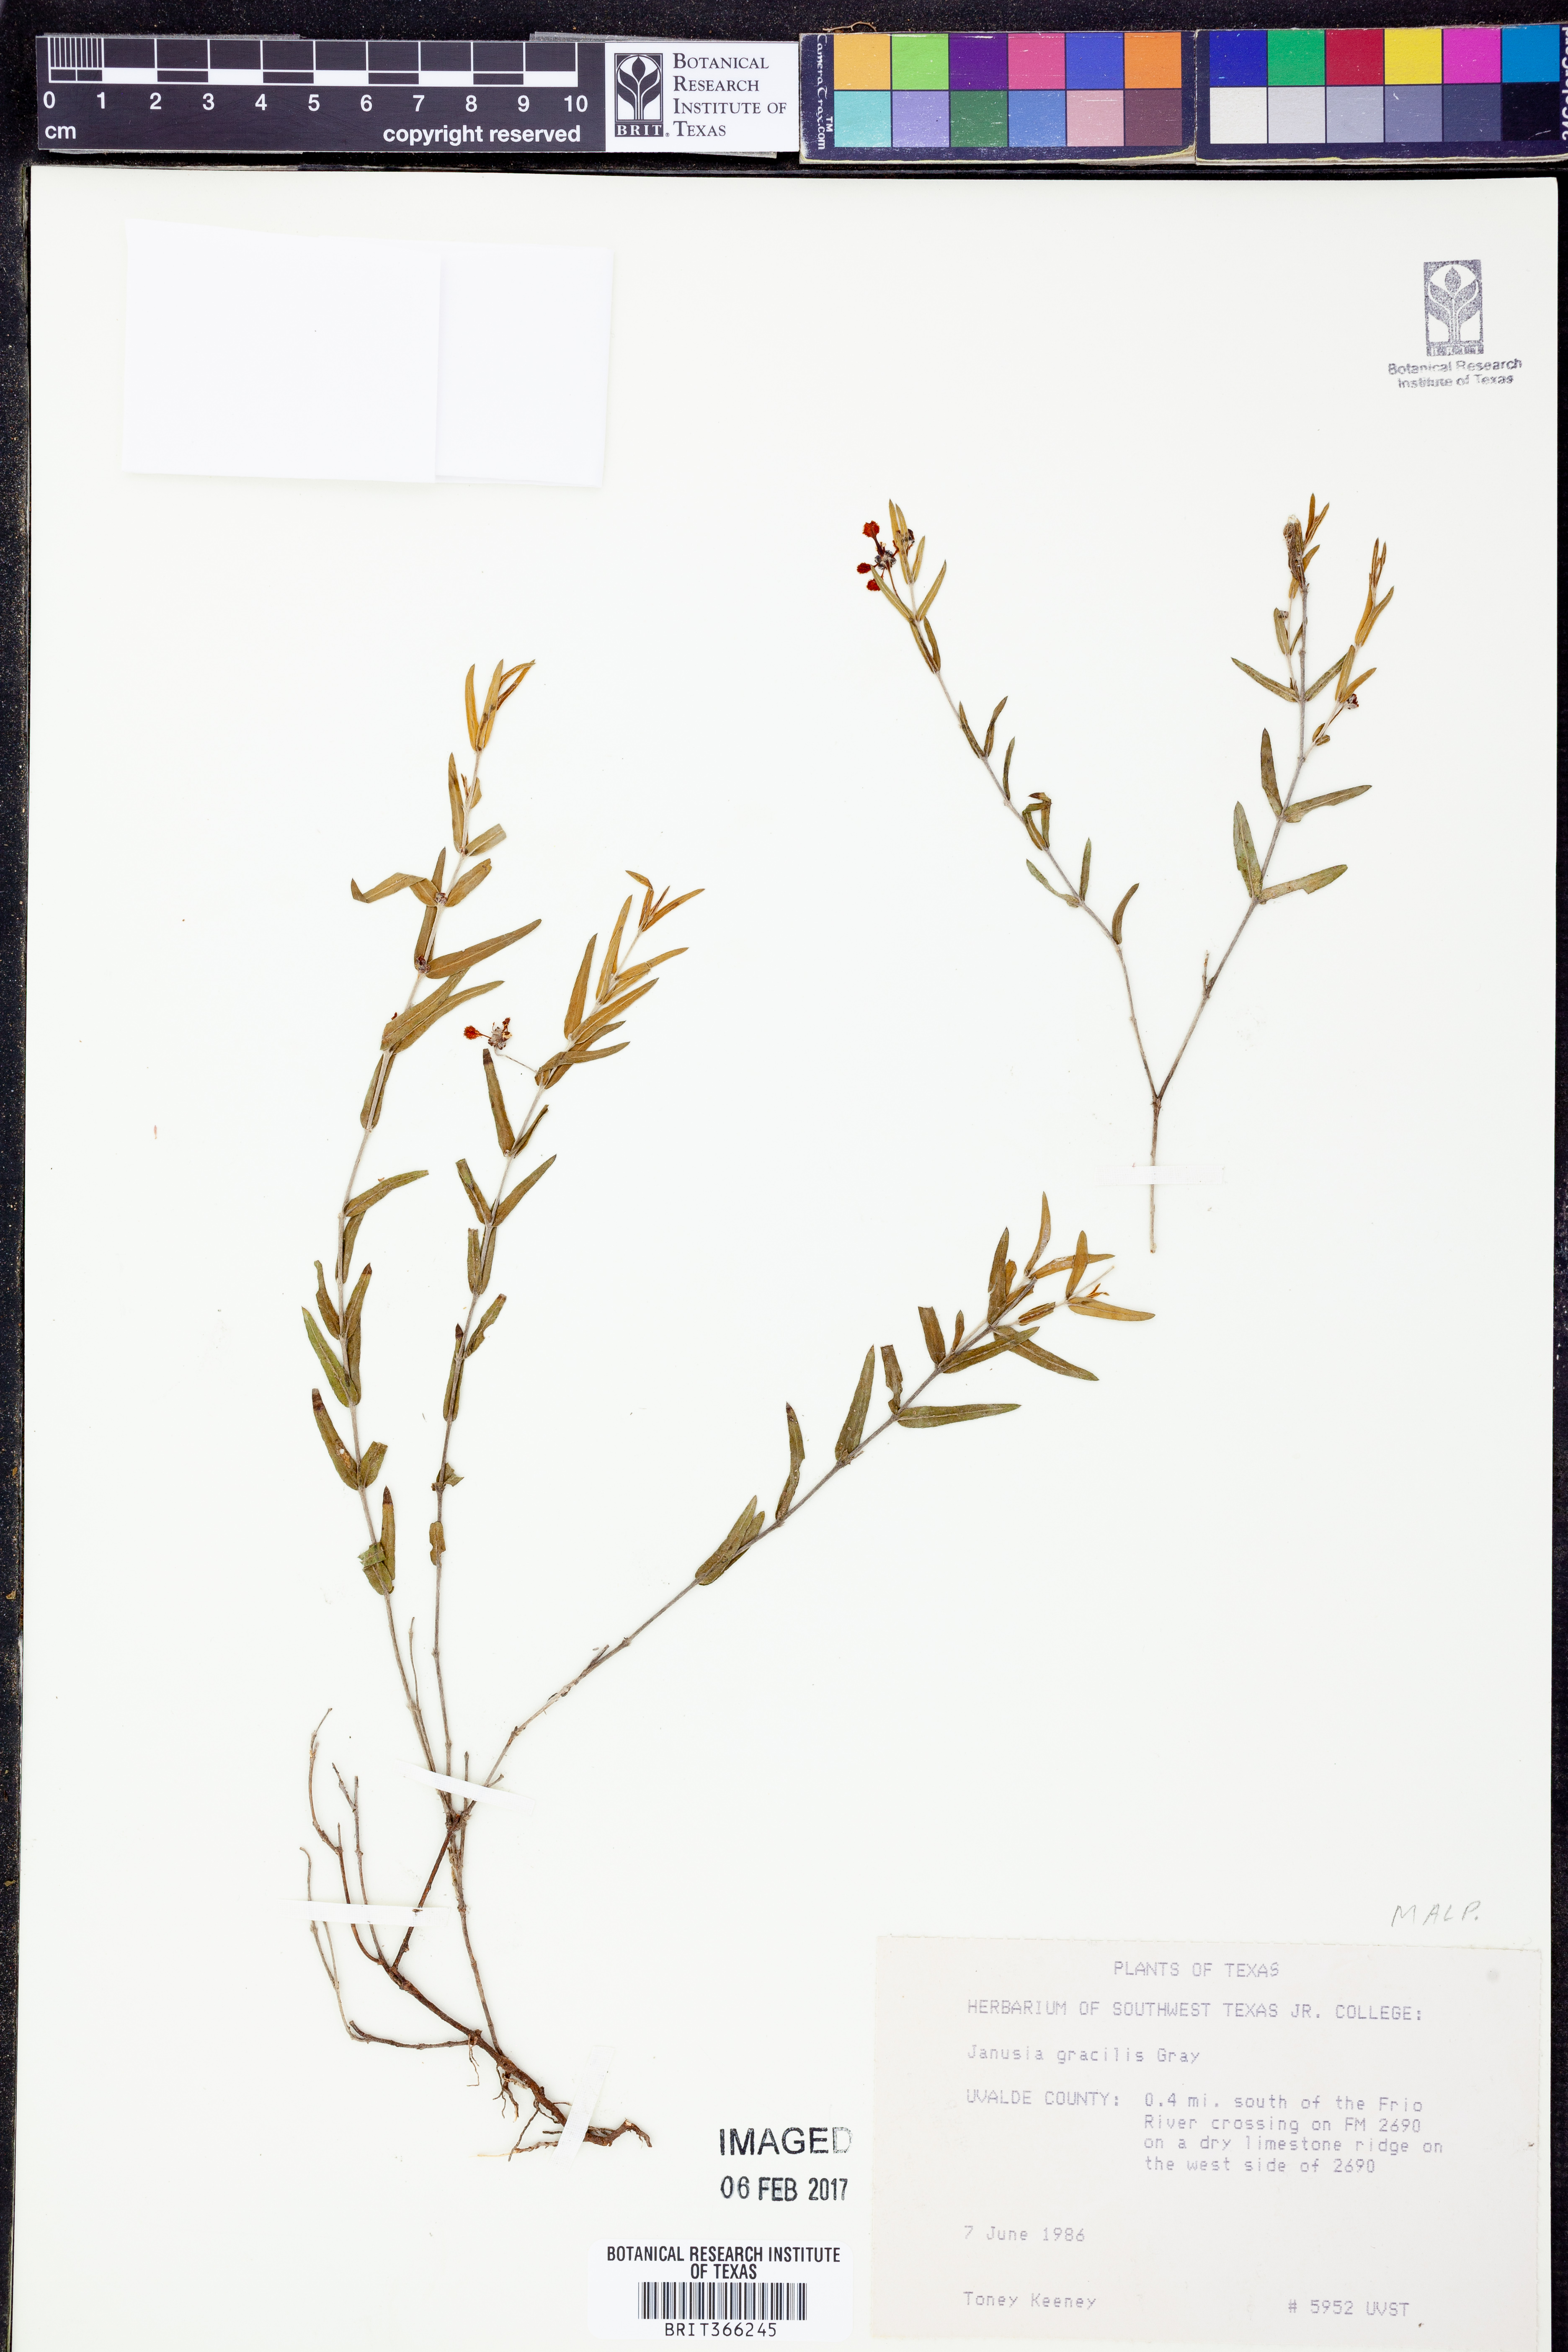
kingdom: Plantae
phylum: Tracheophyta
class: Magnoliopsida
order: Malpighiales
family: Malpighiaceae
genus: Cottsia
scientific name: Cottsia gracilis
